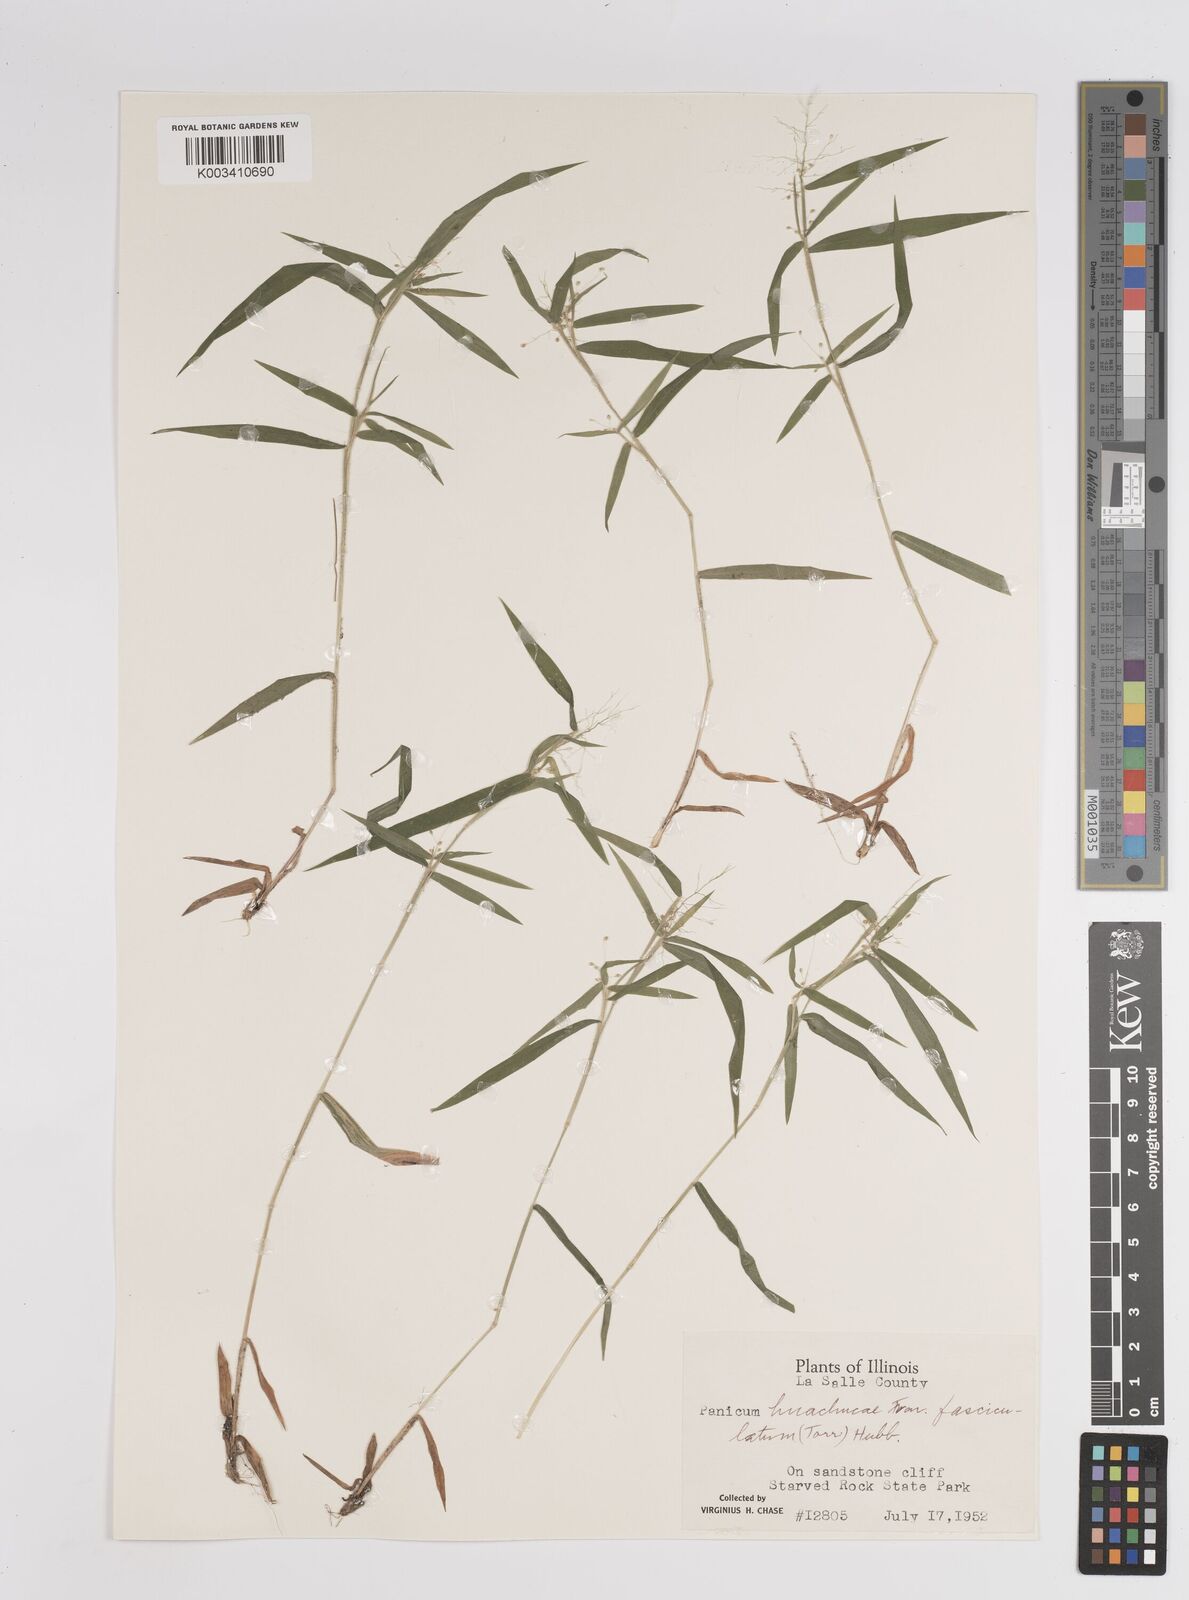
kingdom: Plantae
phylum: Tracheophyta
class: Liliopsida
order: Poales
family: Poaceae
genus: Dichanthelium
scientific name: Dichanthelium lanuginosum
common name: Woolly panicgrass
